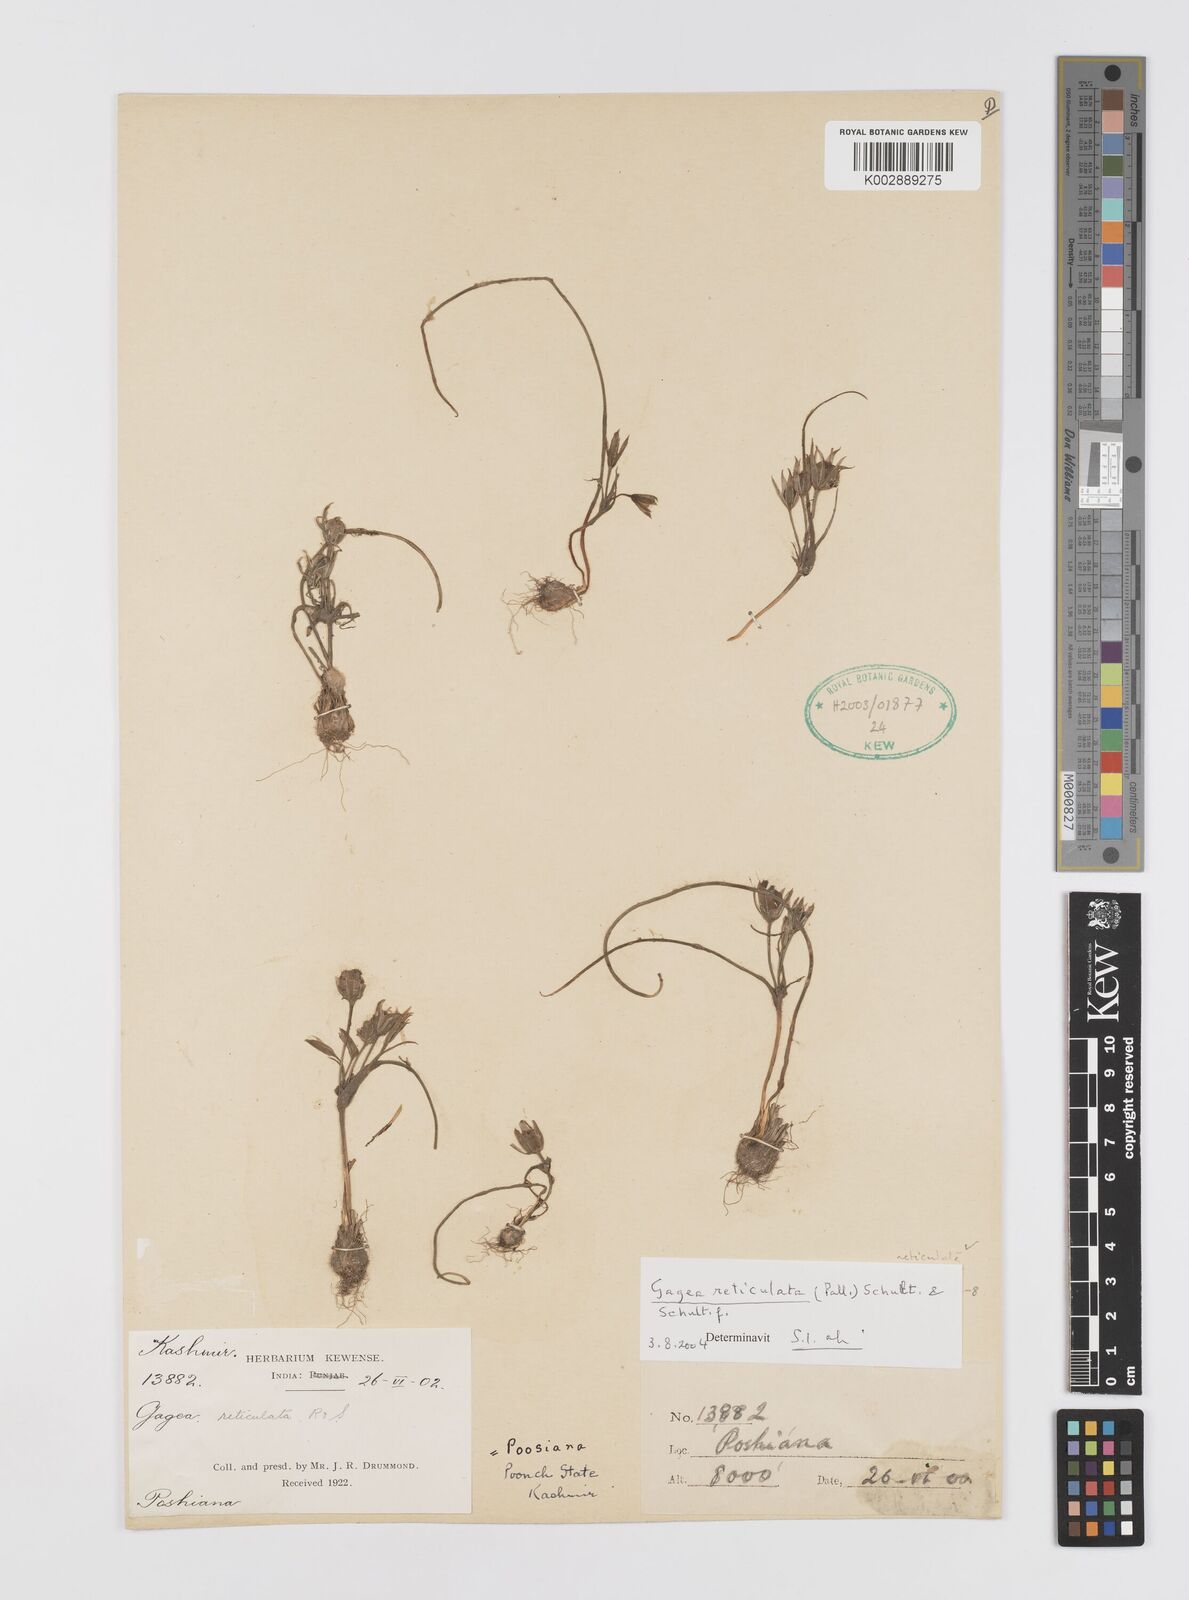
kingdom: Plantae
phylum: Tracheophyta
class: Liliopsida
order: Liliales
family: Liliaceae
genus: Gagea
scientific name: Gagea reticulata
